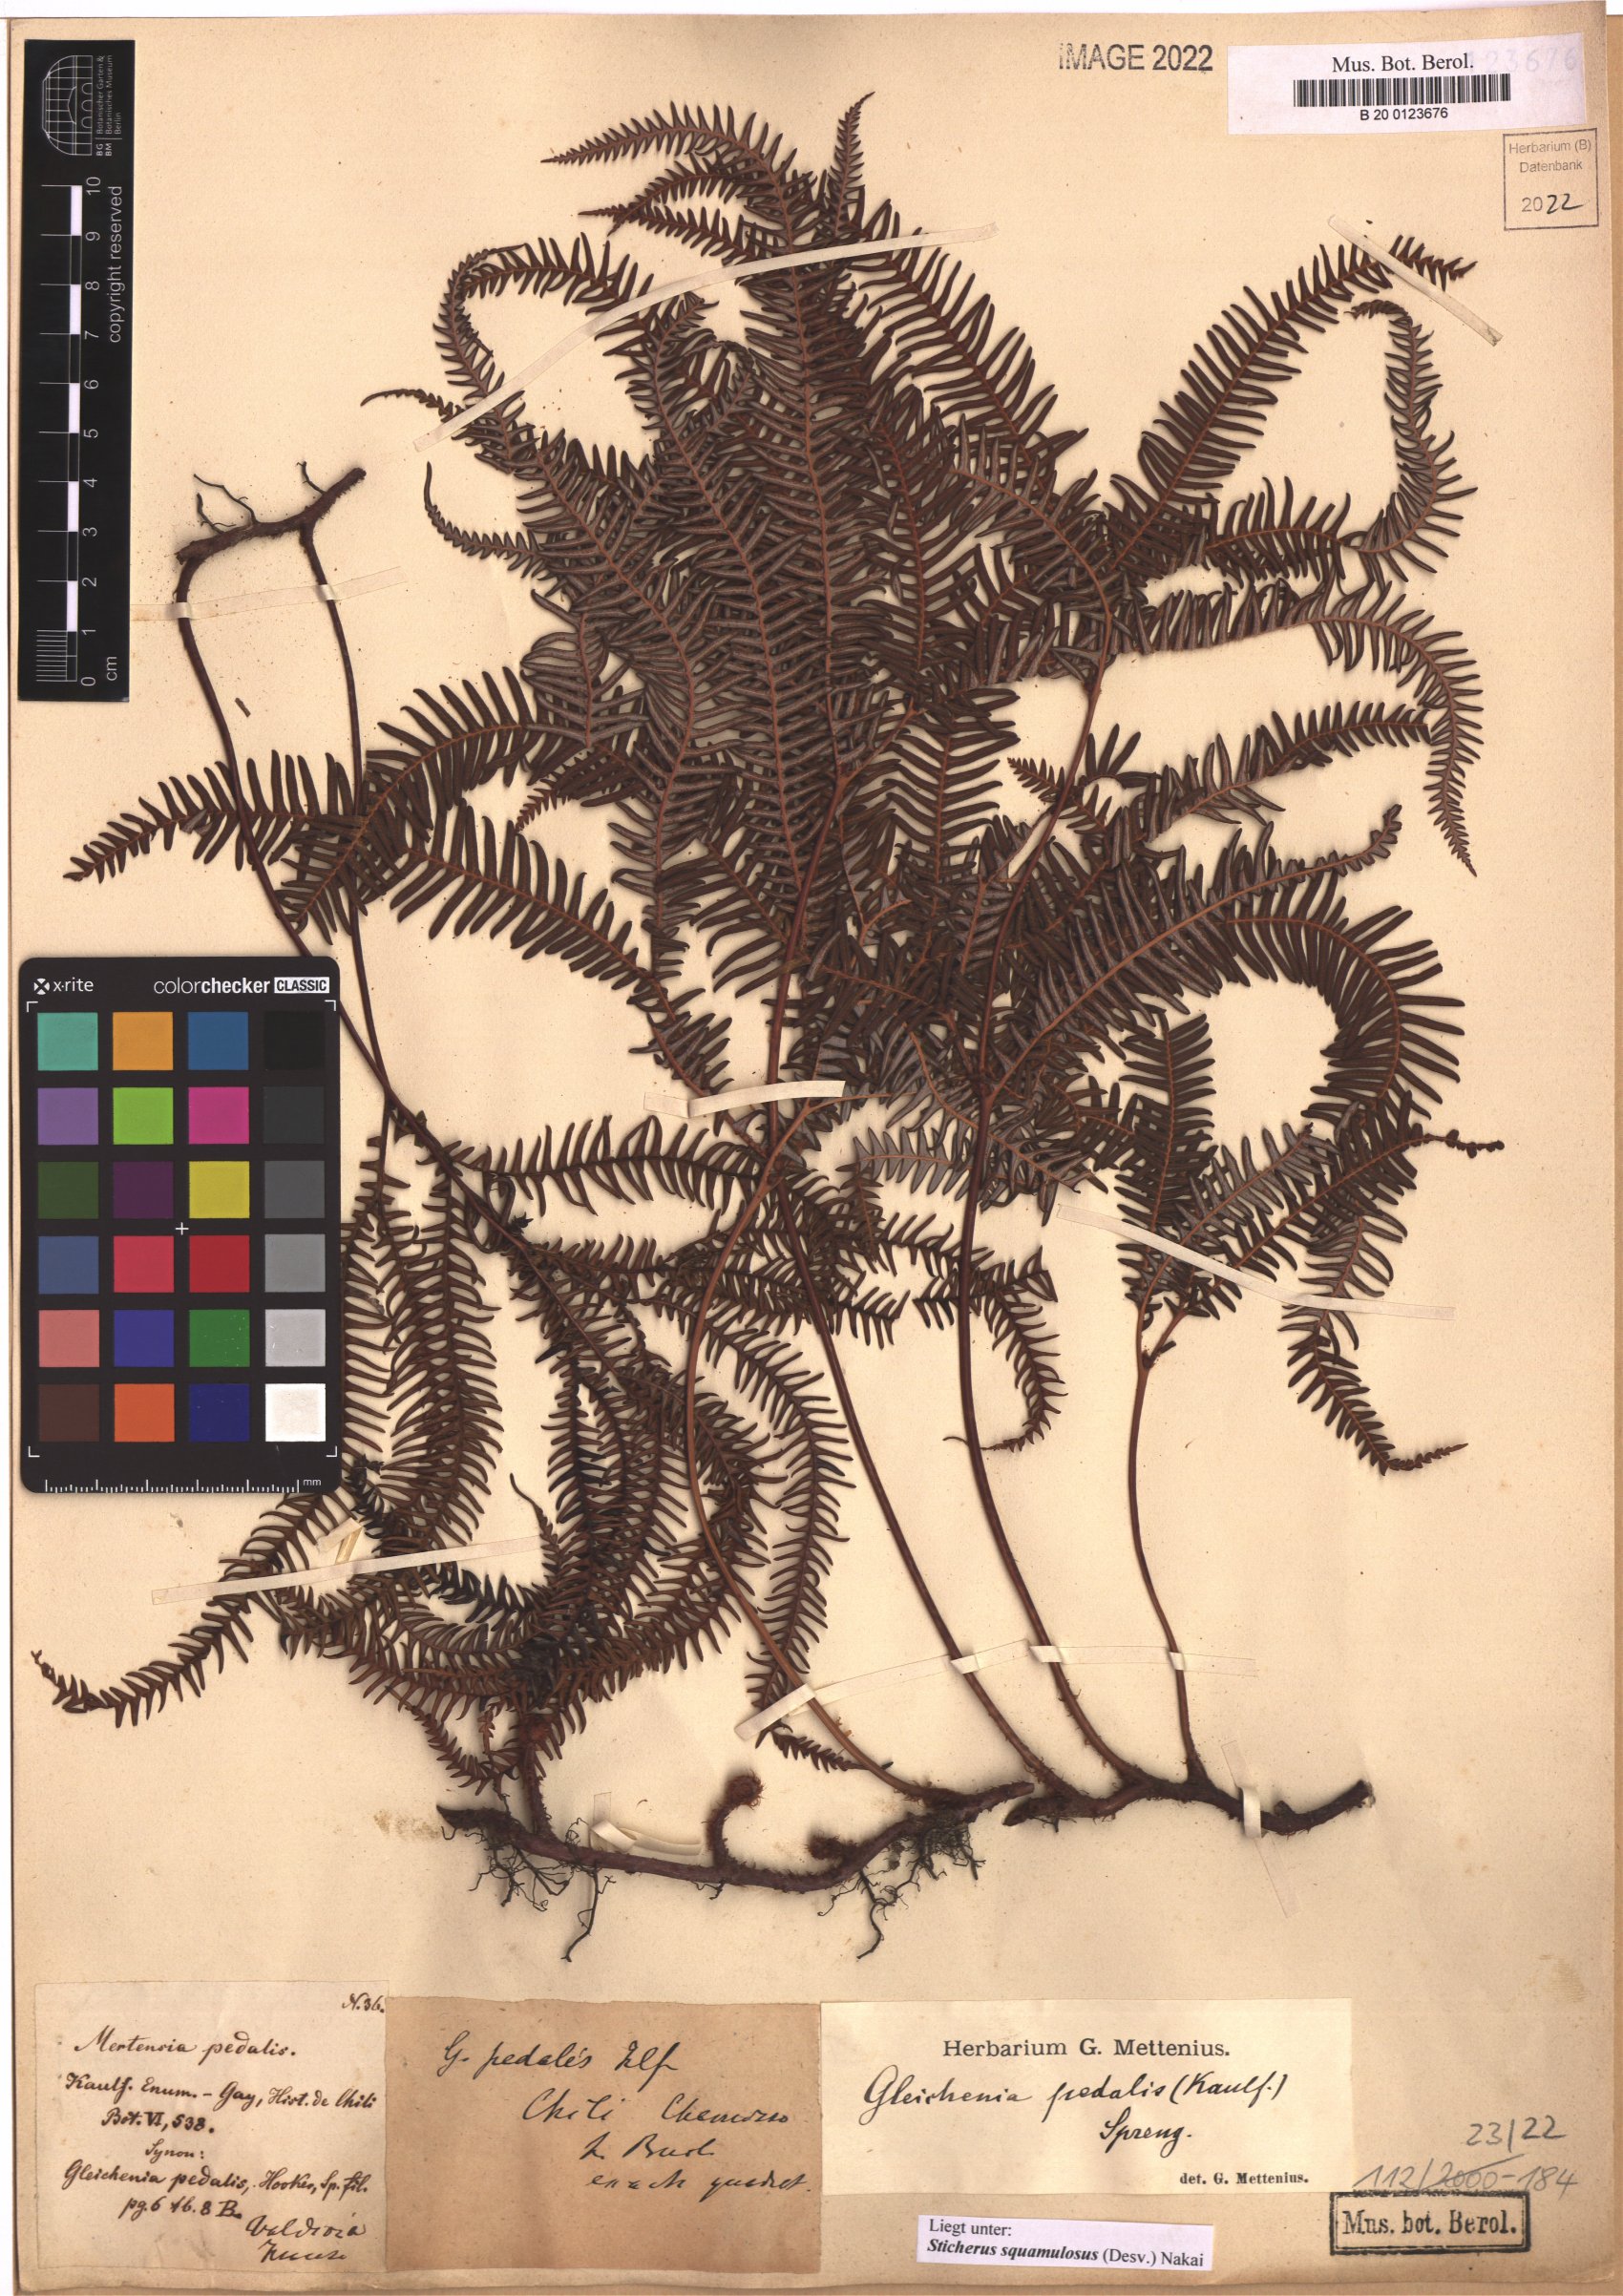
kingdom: Plantae
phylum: Tracheophyta
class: Polypodiopsida
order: Gleicheniales
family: Gleicheniaceae
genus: Sticherus
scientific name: Sticherus squamulosus
